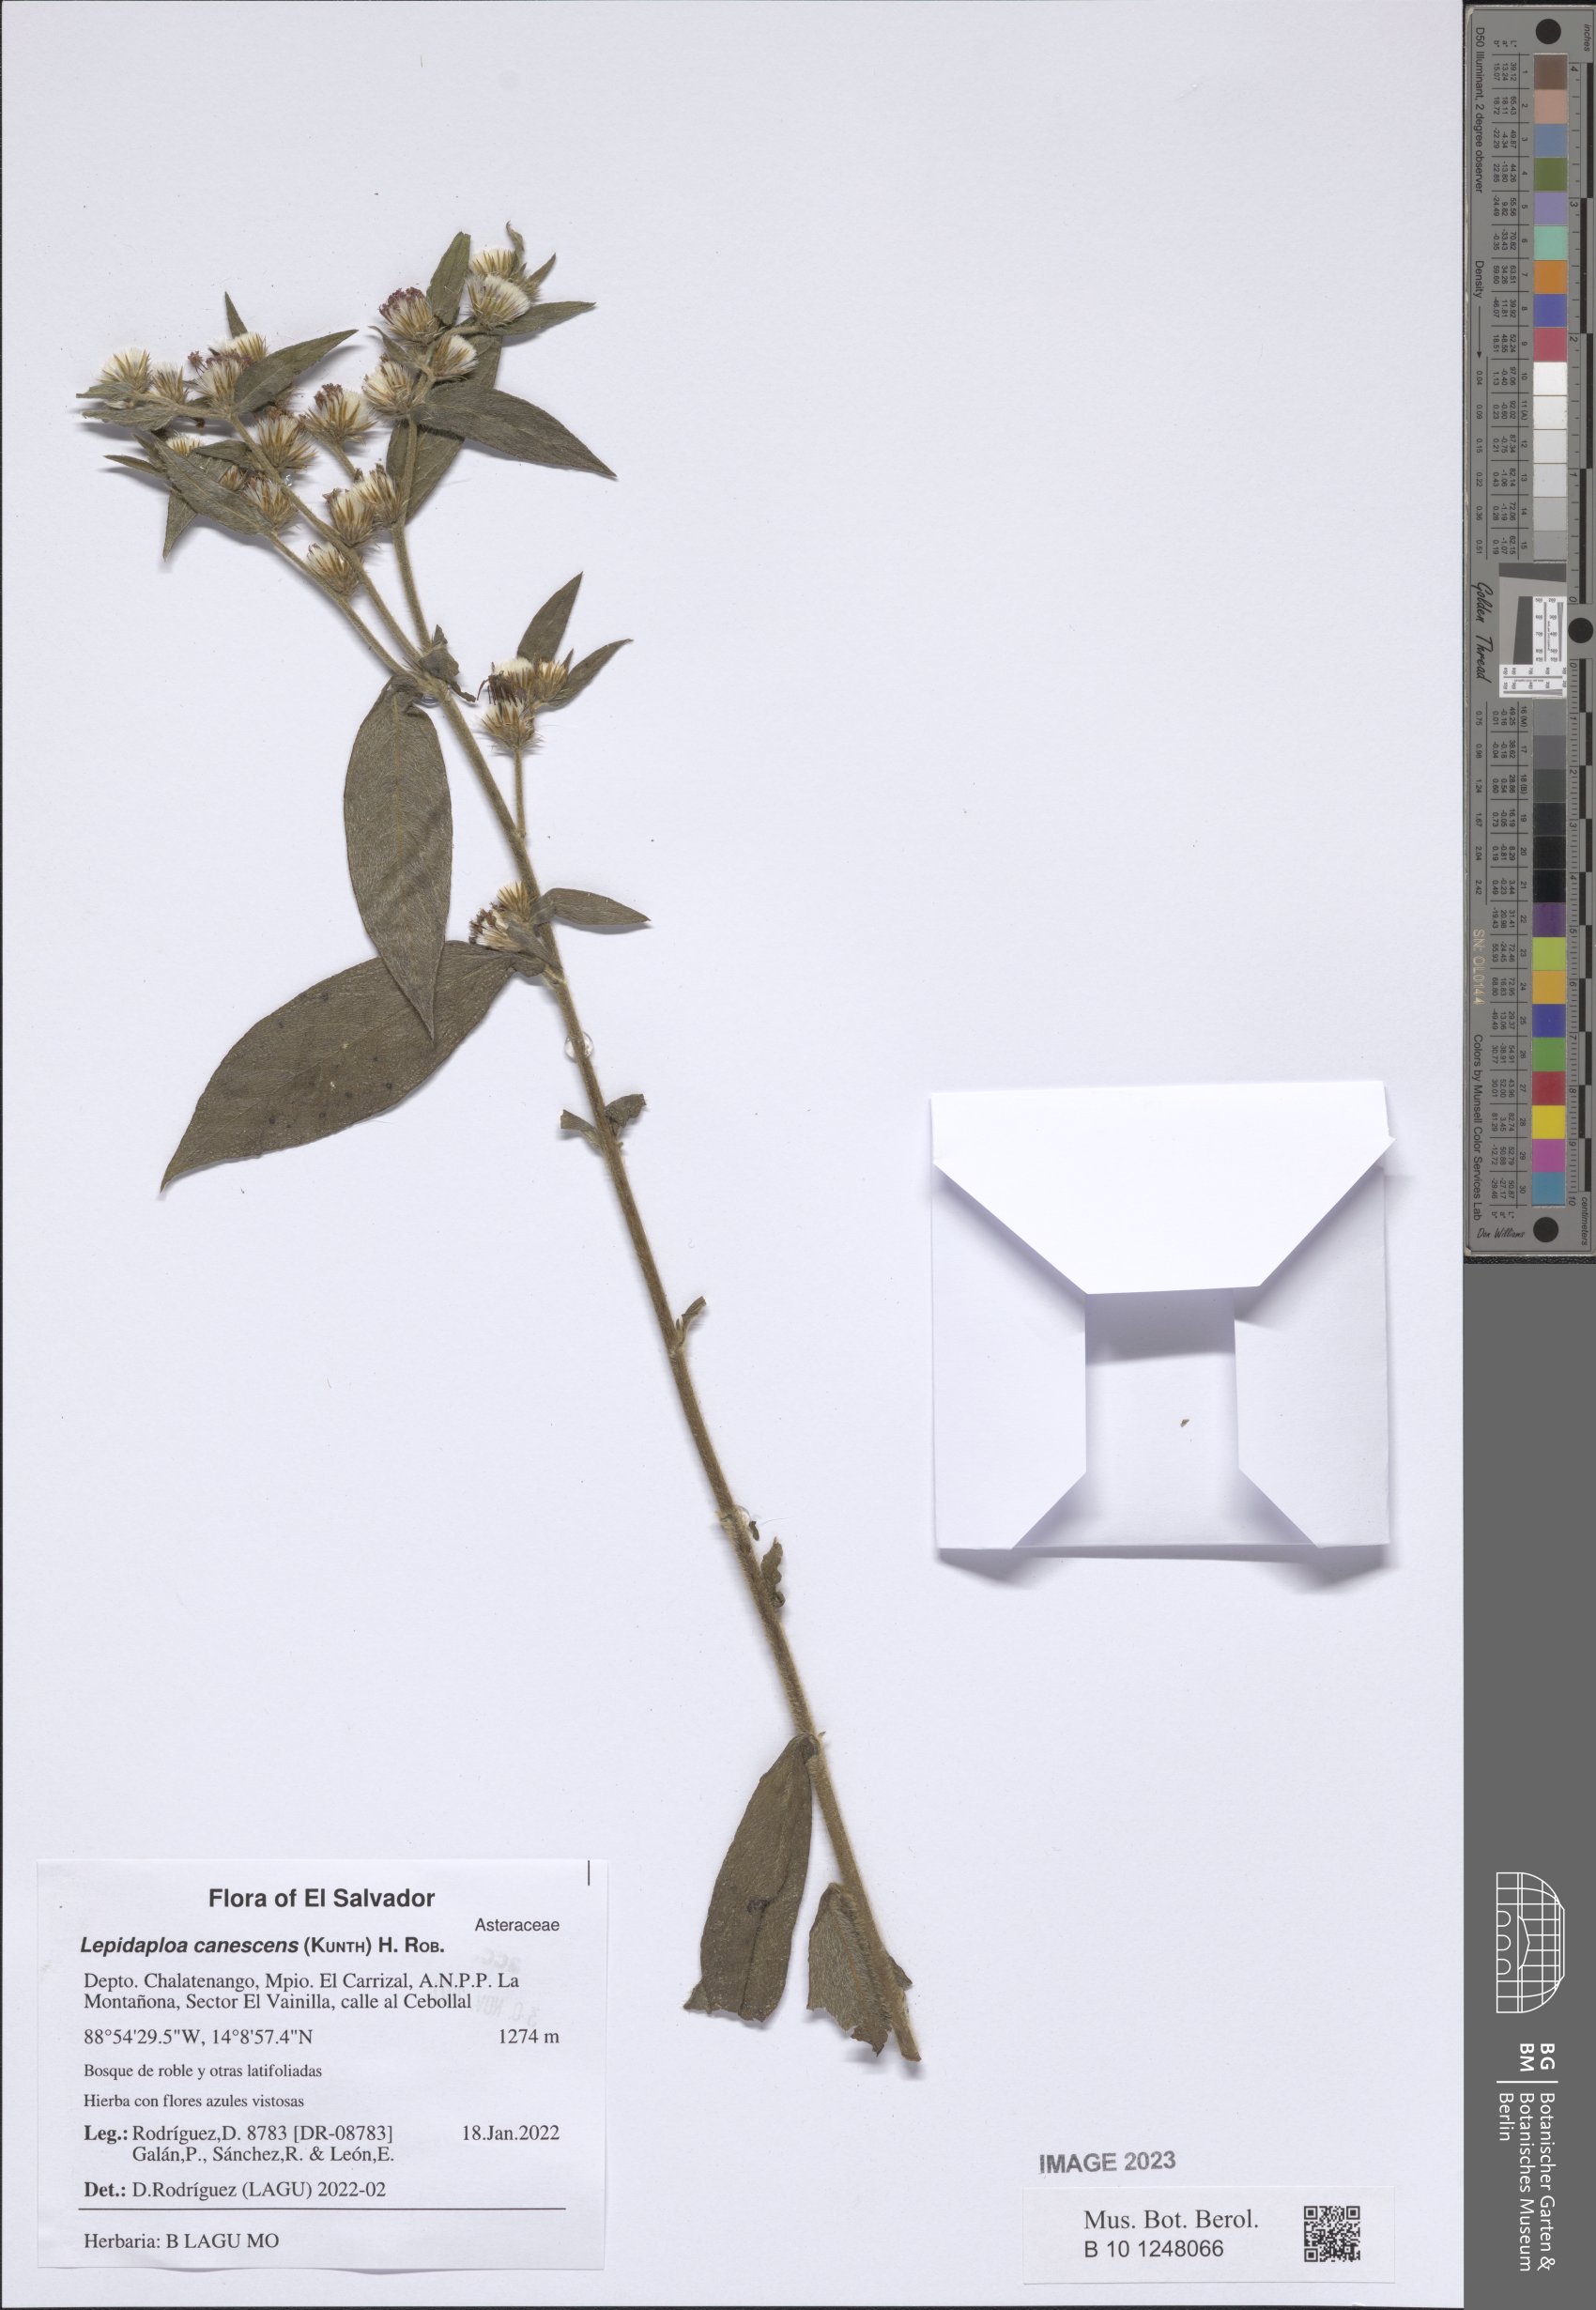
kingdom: Plantae
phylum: Tracheophyta
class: Magnoliopsida
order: Asterales
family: Asteraceae
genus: Lepidaploa
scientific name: Lepidaploa canescens
